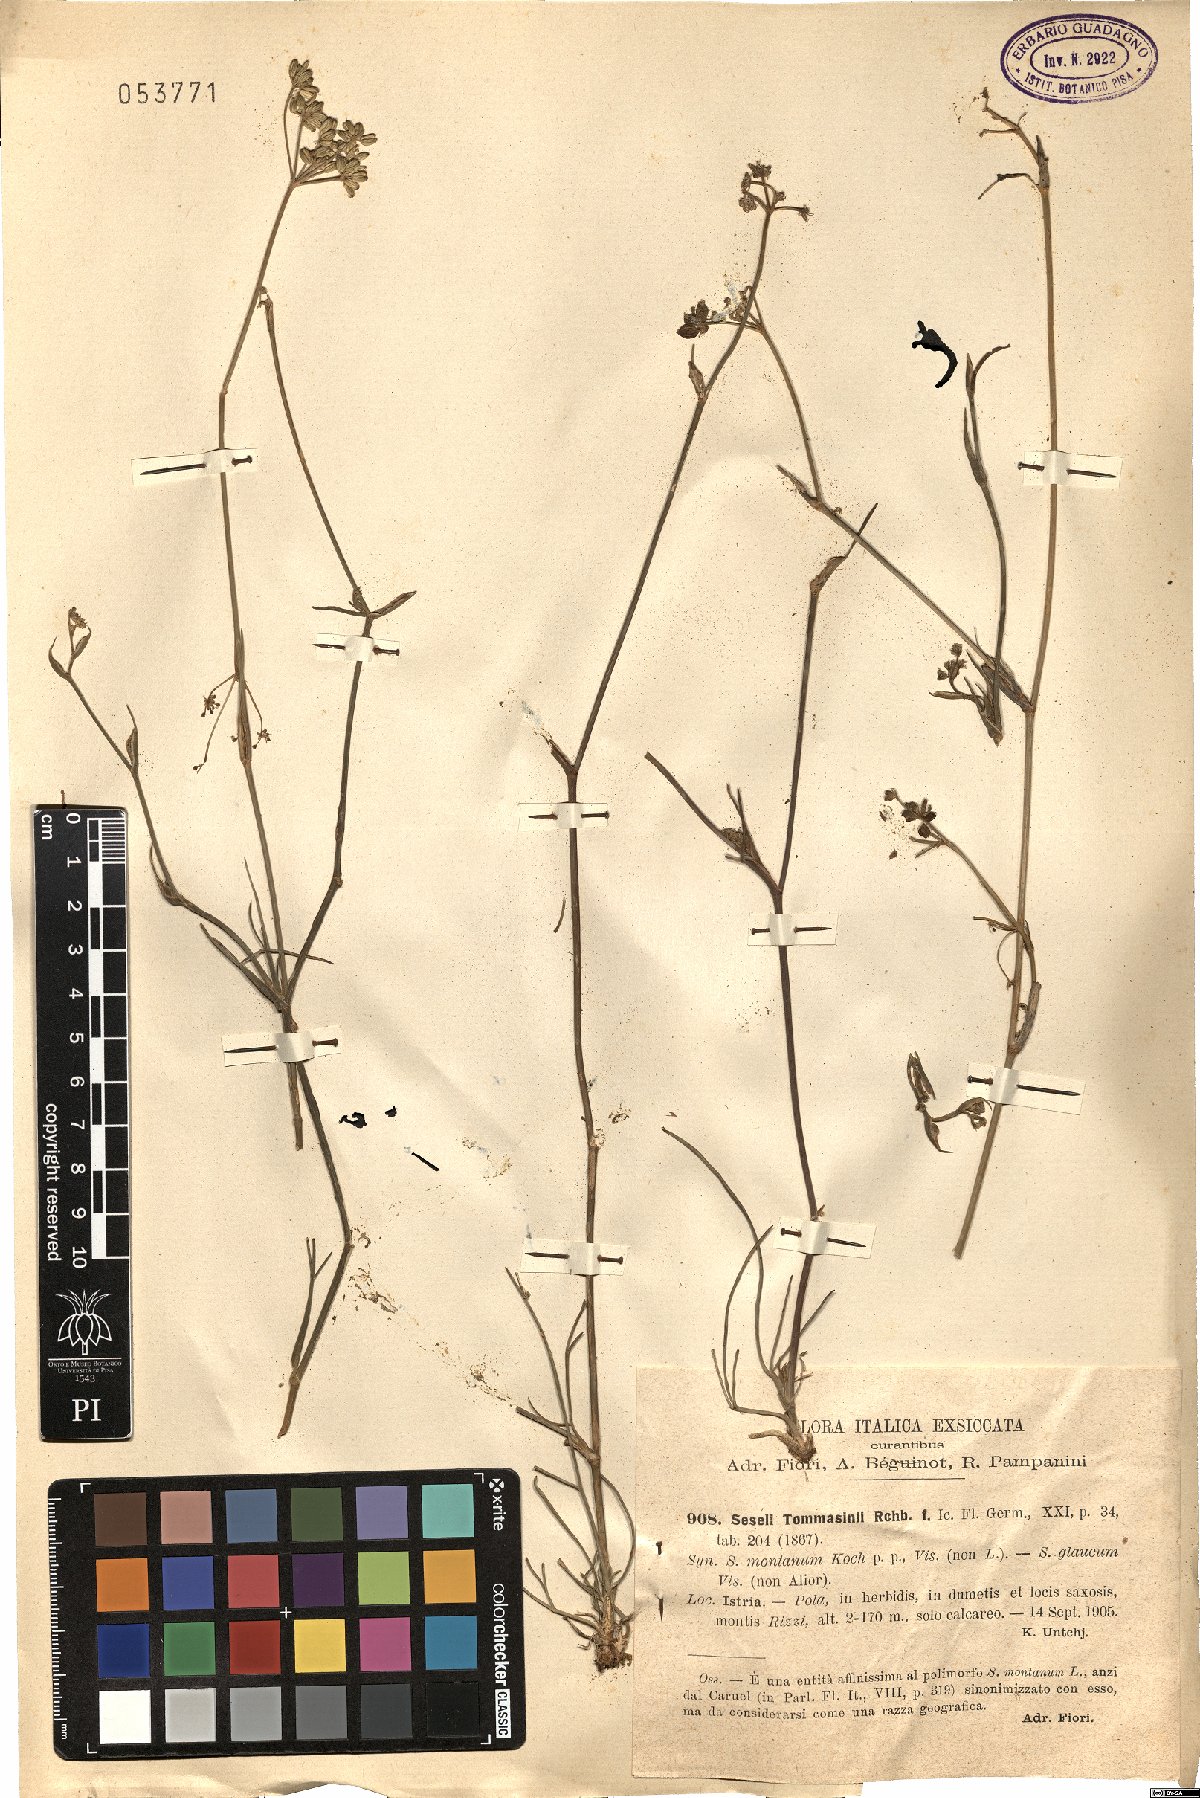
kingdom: Plantae
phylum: Tracheophyta
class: Magnoliopsida
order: Apiales
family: Apiaceae
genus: Seseli
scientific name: Seseli montanum
